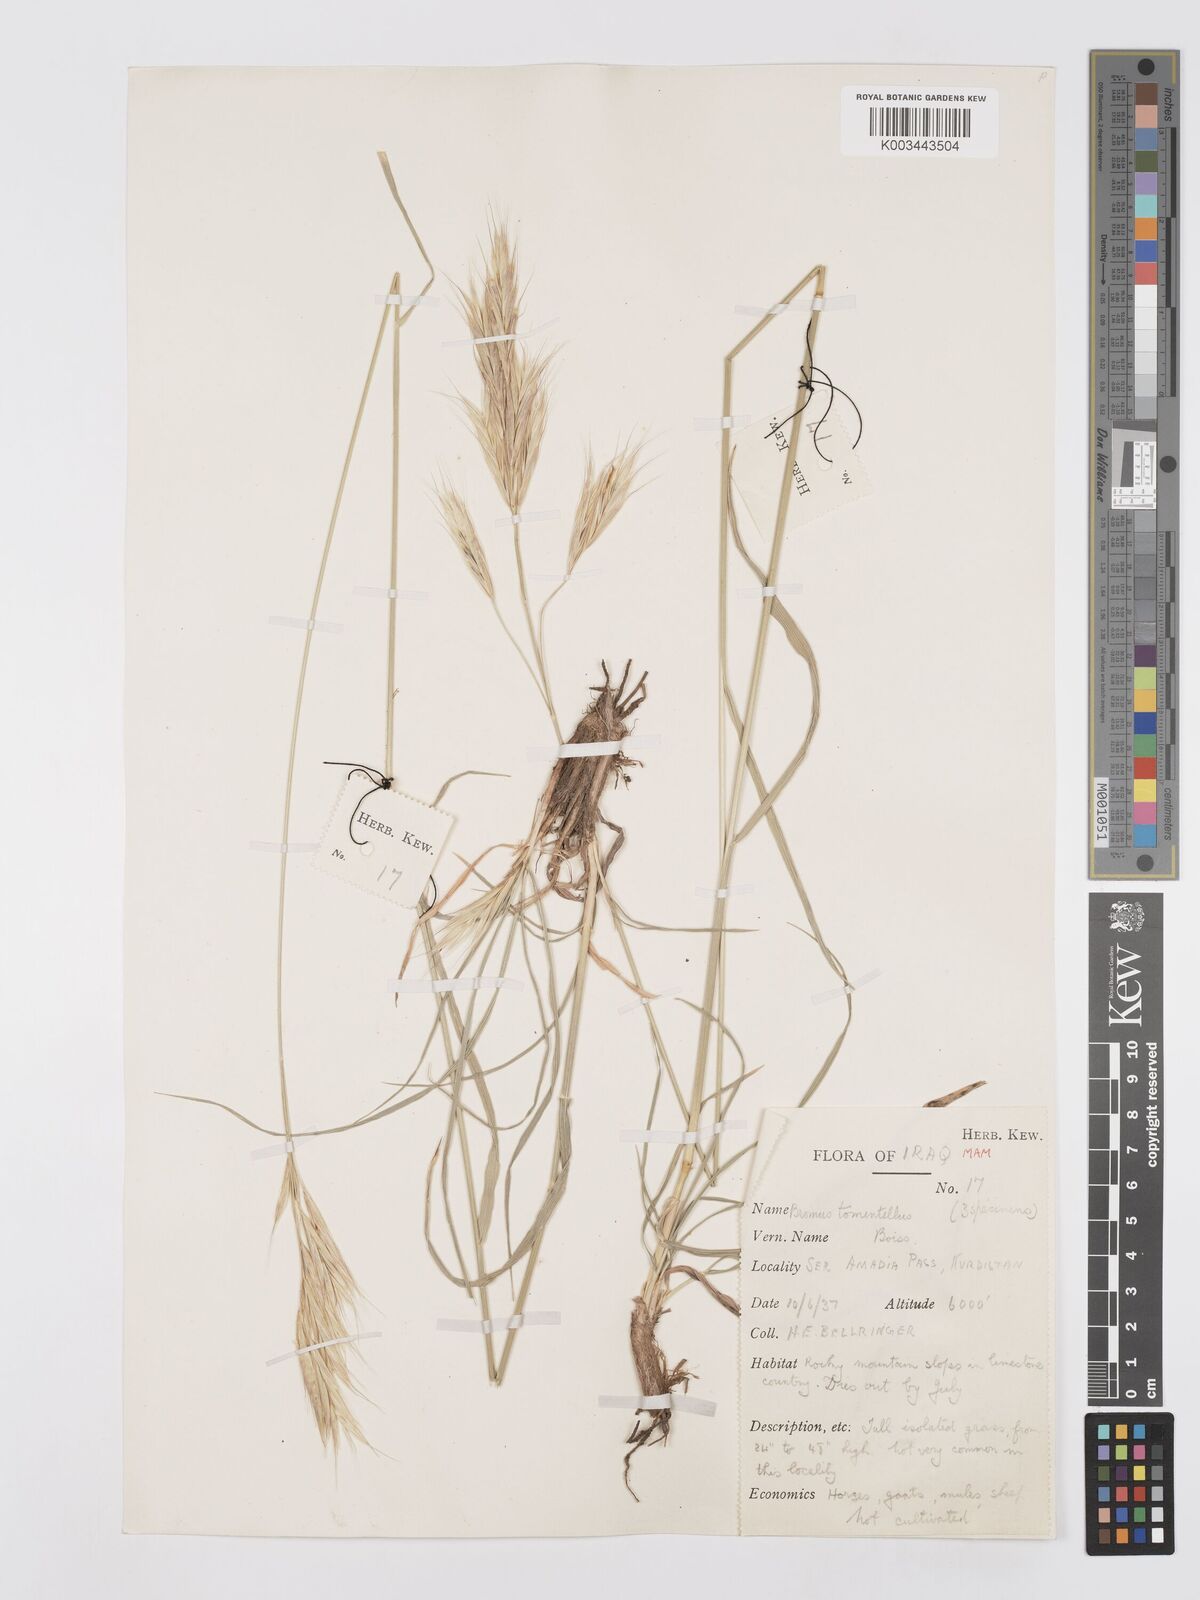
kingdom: Plantae
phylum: Tracheophyta
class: Liliopsida
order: Poales
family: Poaceae
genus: Bromus
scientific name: Bromus tomentellus
